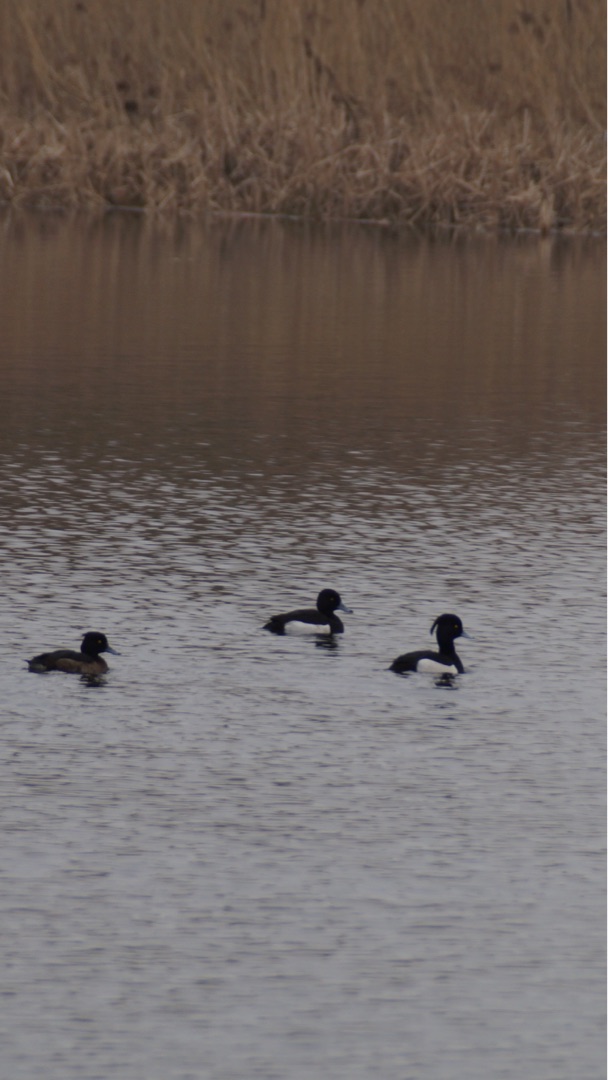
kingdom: Animalia
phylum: Chordata
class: Aves
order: Anseriformes
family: Anatidae
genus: Aythya
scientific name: Aythya fuligula
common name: Troldand
